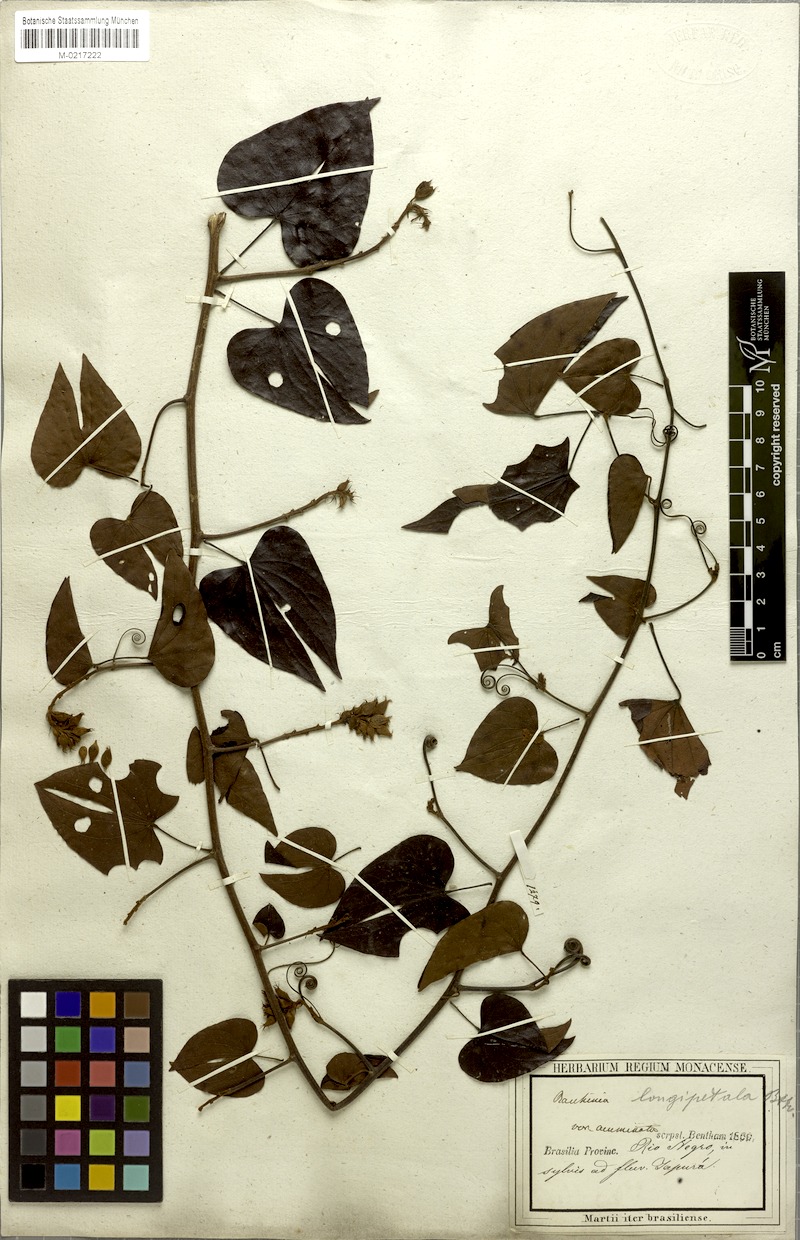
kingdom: Plantae
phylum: Tracheophyta
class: Magnoliopsida
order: Fabales
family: Fabaceae
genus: Schnella
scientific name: Schnella glabra
